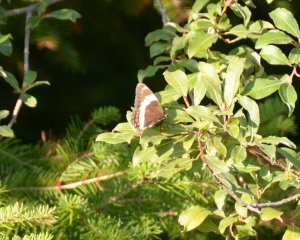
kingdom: Animalia
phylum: Arthropoda
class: Insecta
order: Lepidoptera
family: Nymphalidae
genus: Limenitis
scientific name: Limenitis arthemis
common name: Red-spotted Admiral
